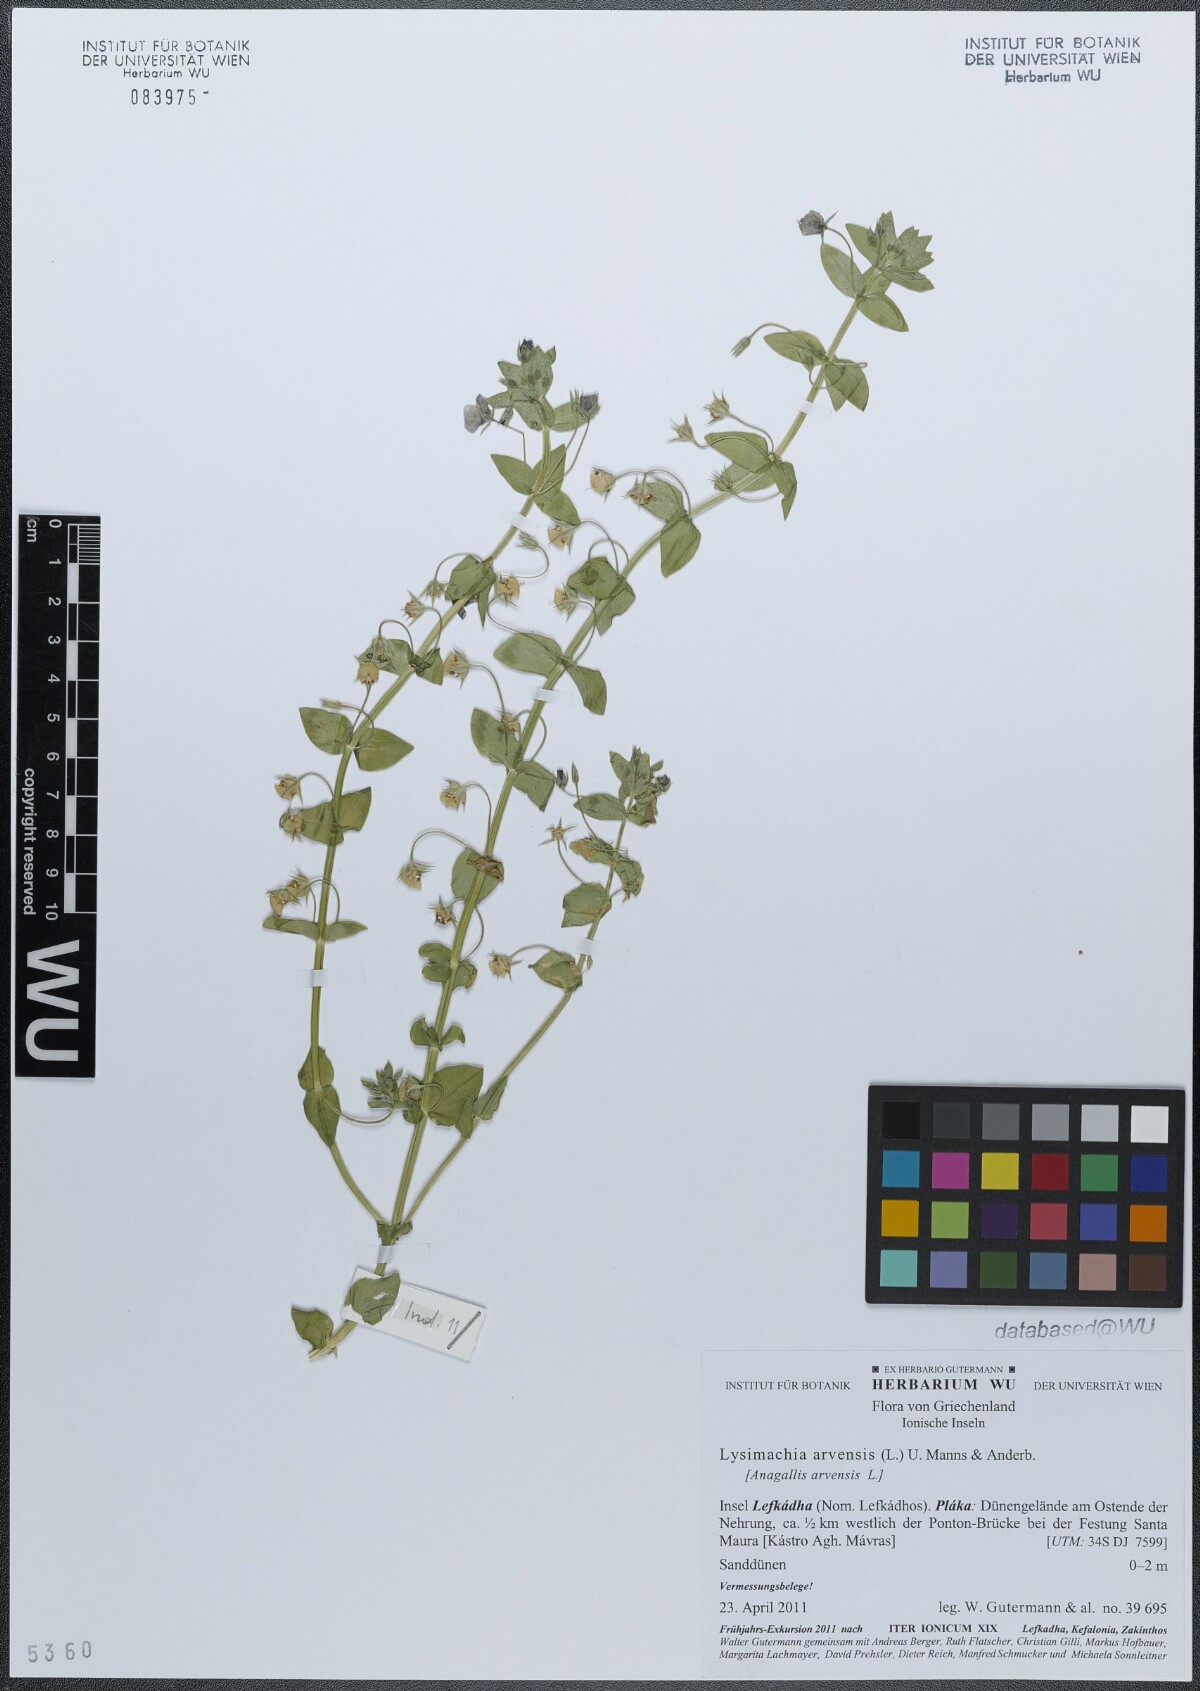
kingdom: Plantae
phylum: Tracheophyta
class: Magnoliopsida
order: Ericales
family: Primulaceae
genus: Lysimachia
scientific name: Lysimachia arvensis
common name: Scarlet pimpernel
